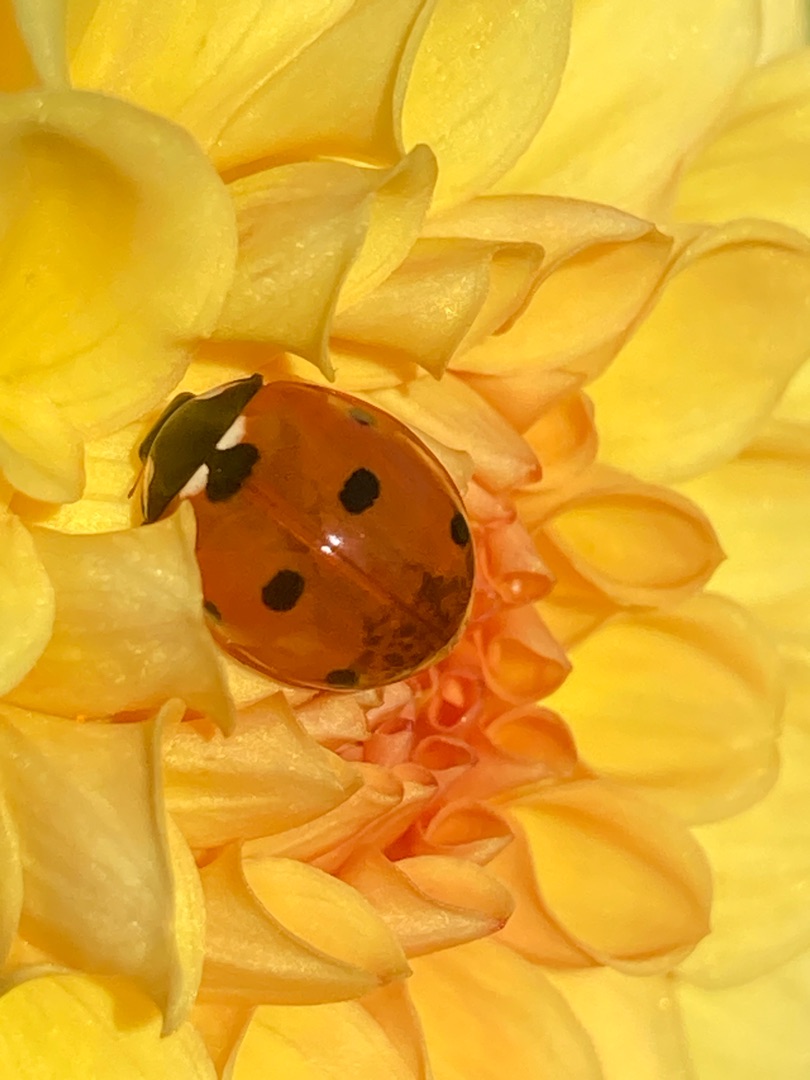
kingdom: Animalia
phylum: Arthropoda
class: Insecta
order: Coleoptera
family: Coccinellidae
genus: Coccinella
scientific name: Coccinella septempunctata
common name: Syvplettet mariehøne
